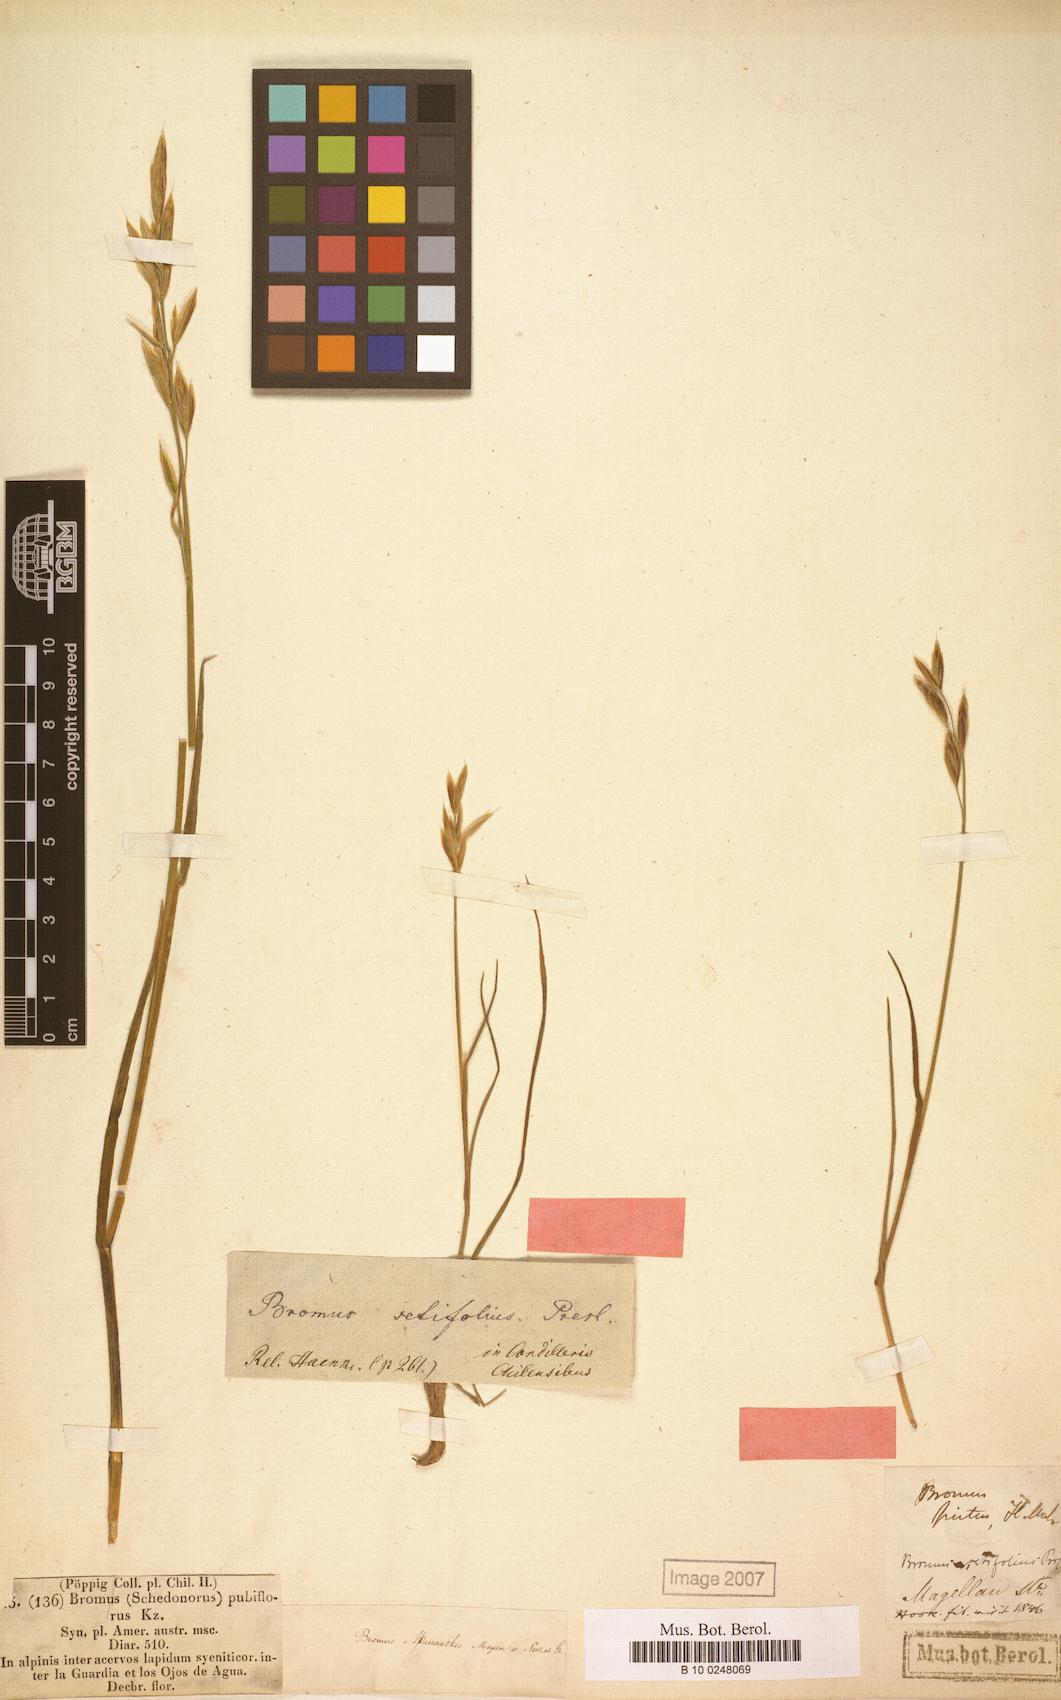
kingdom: Plantae
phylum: Tracheophyta
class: Liliopsida
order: Poales
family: Poaceae
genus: Bromus
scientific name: Bromus setifolius
